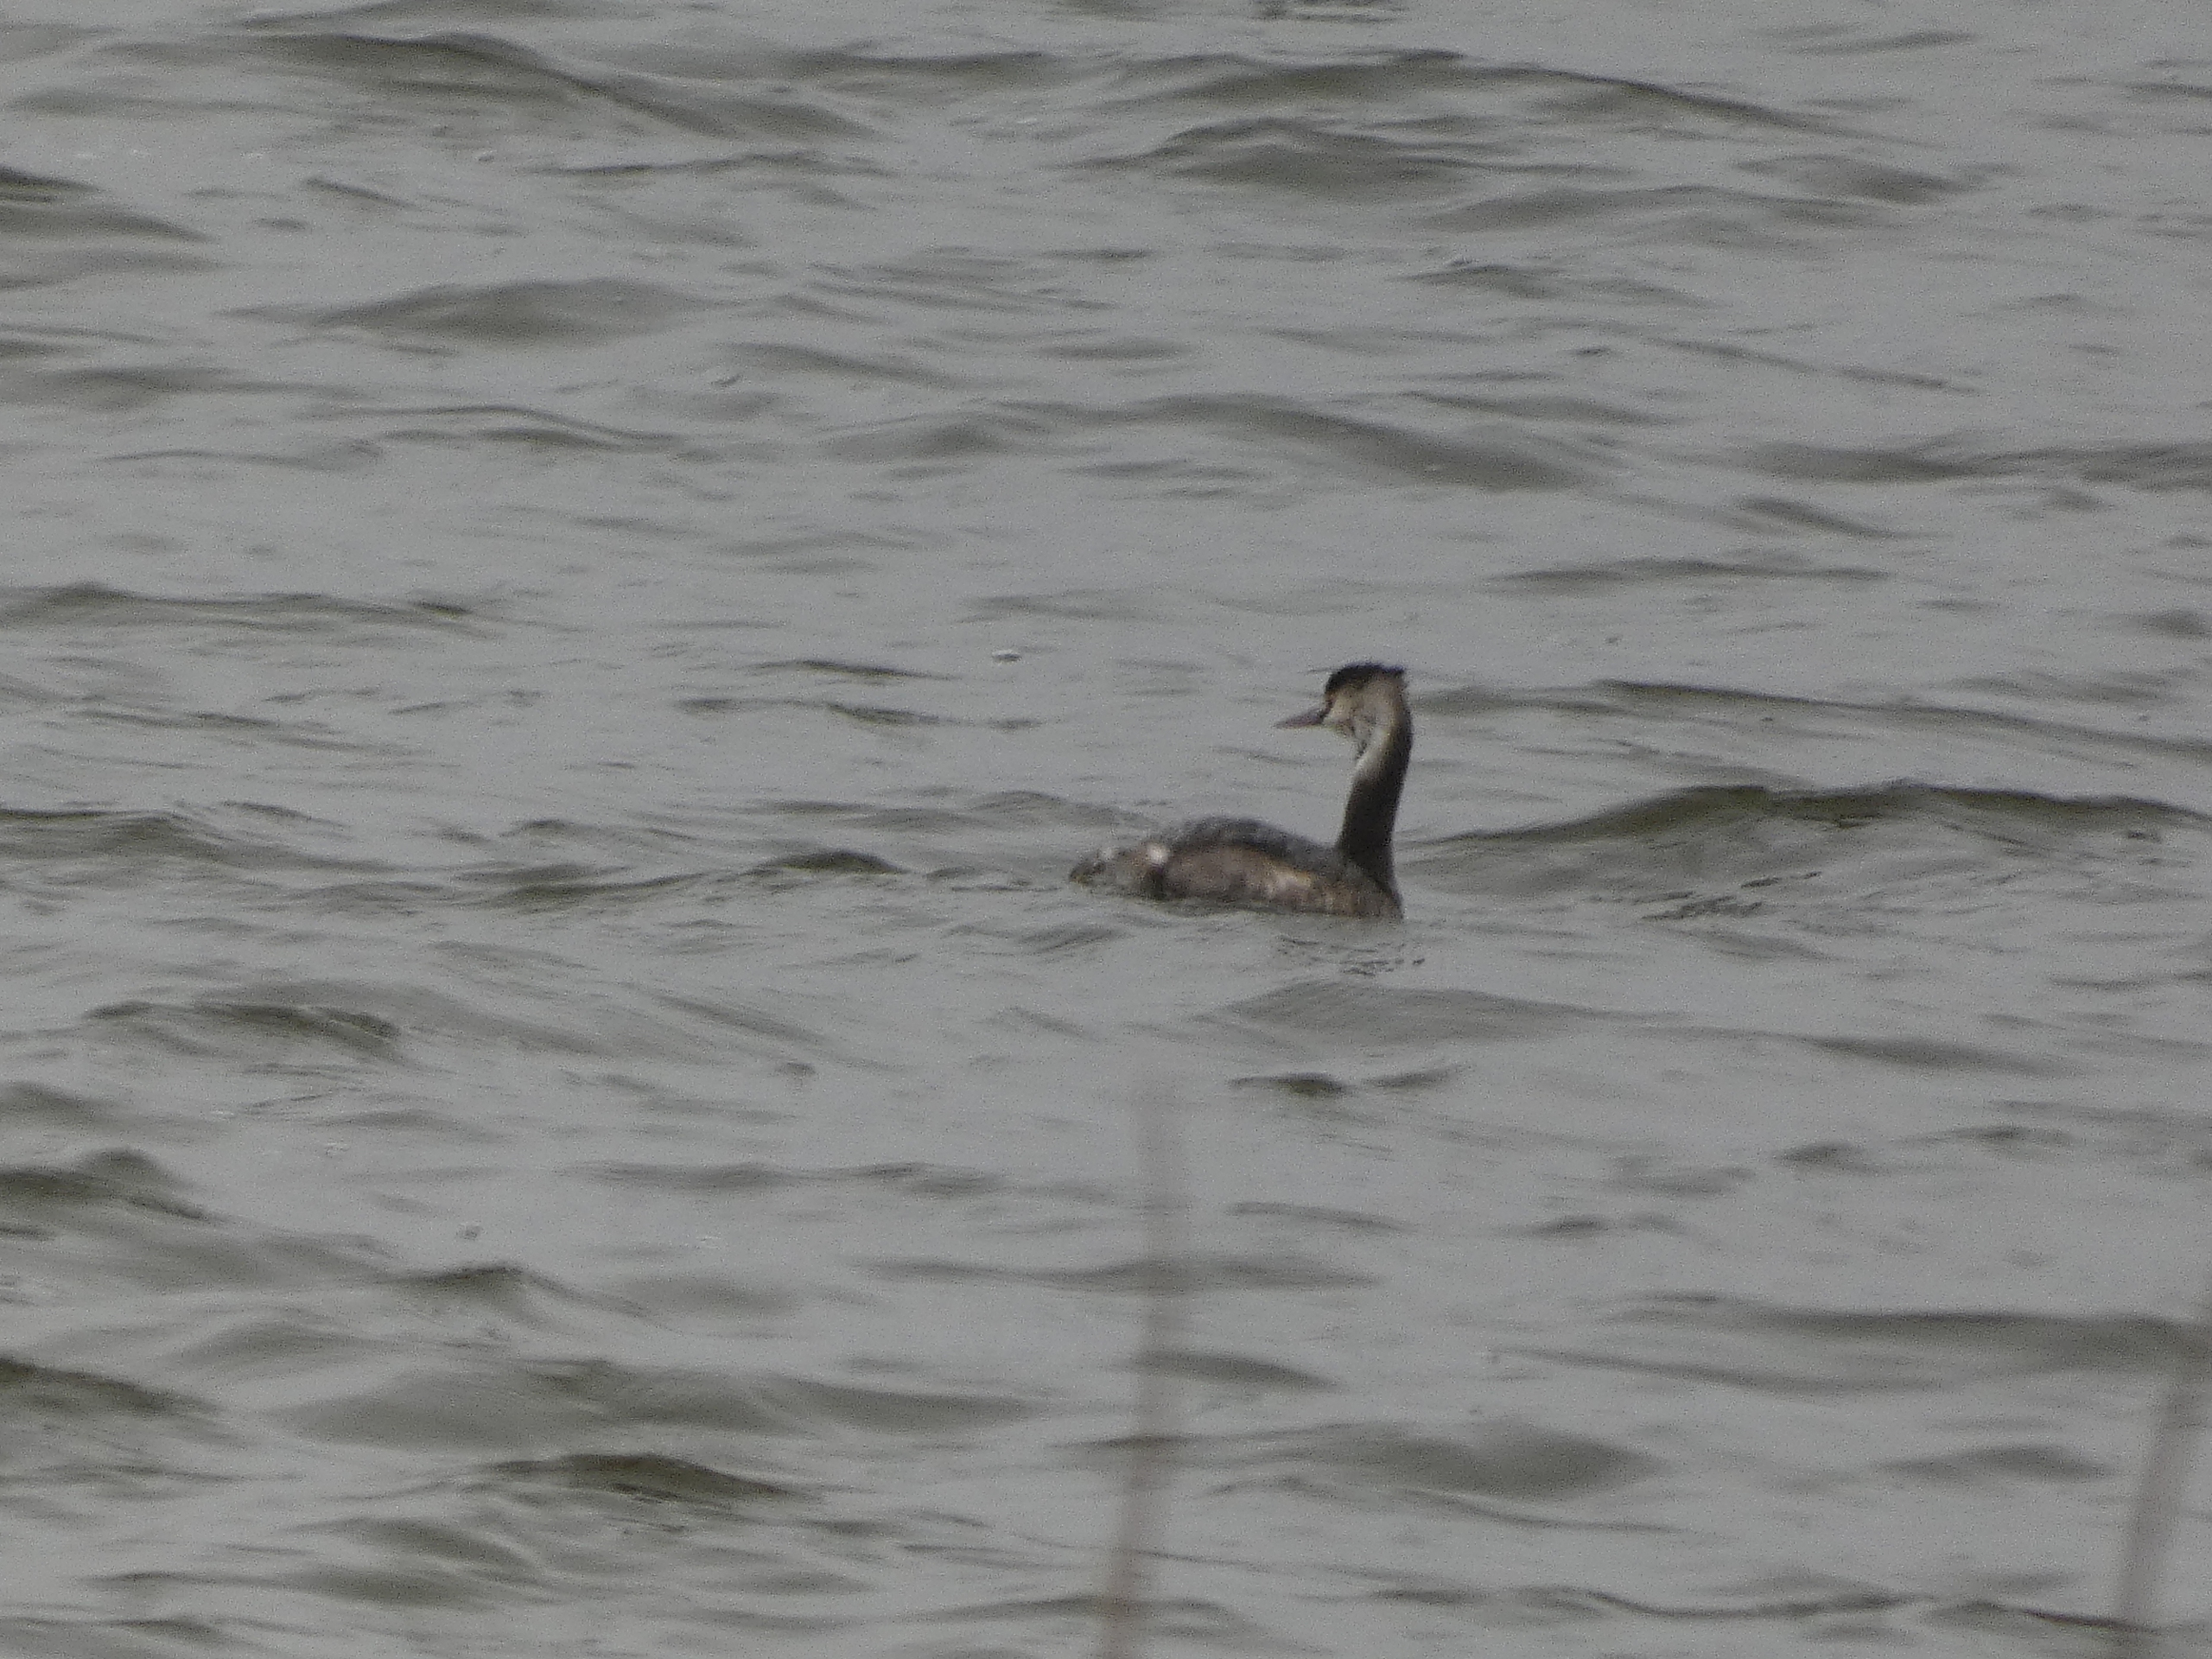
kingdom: Animalia
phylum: Chordata
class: Aves
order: Podicipediformes
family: Podicipedidae
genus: Podiceps
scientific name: Podiceps cristatus
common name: Toppet lappedykker
